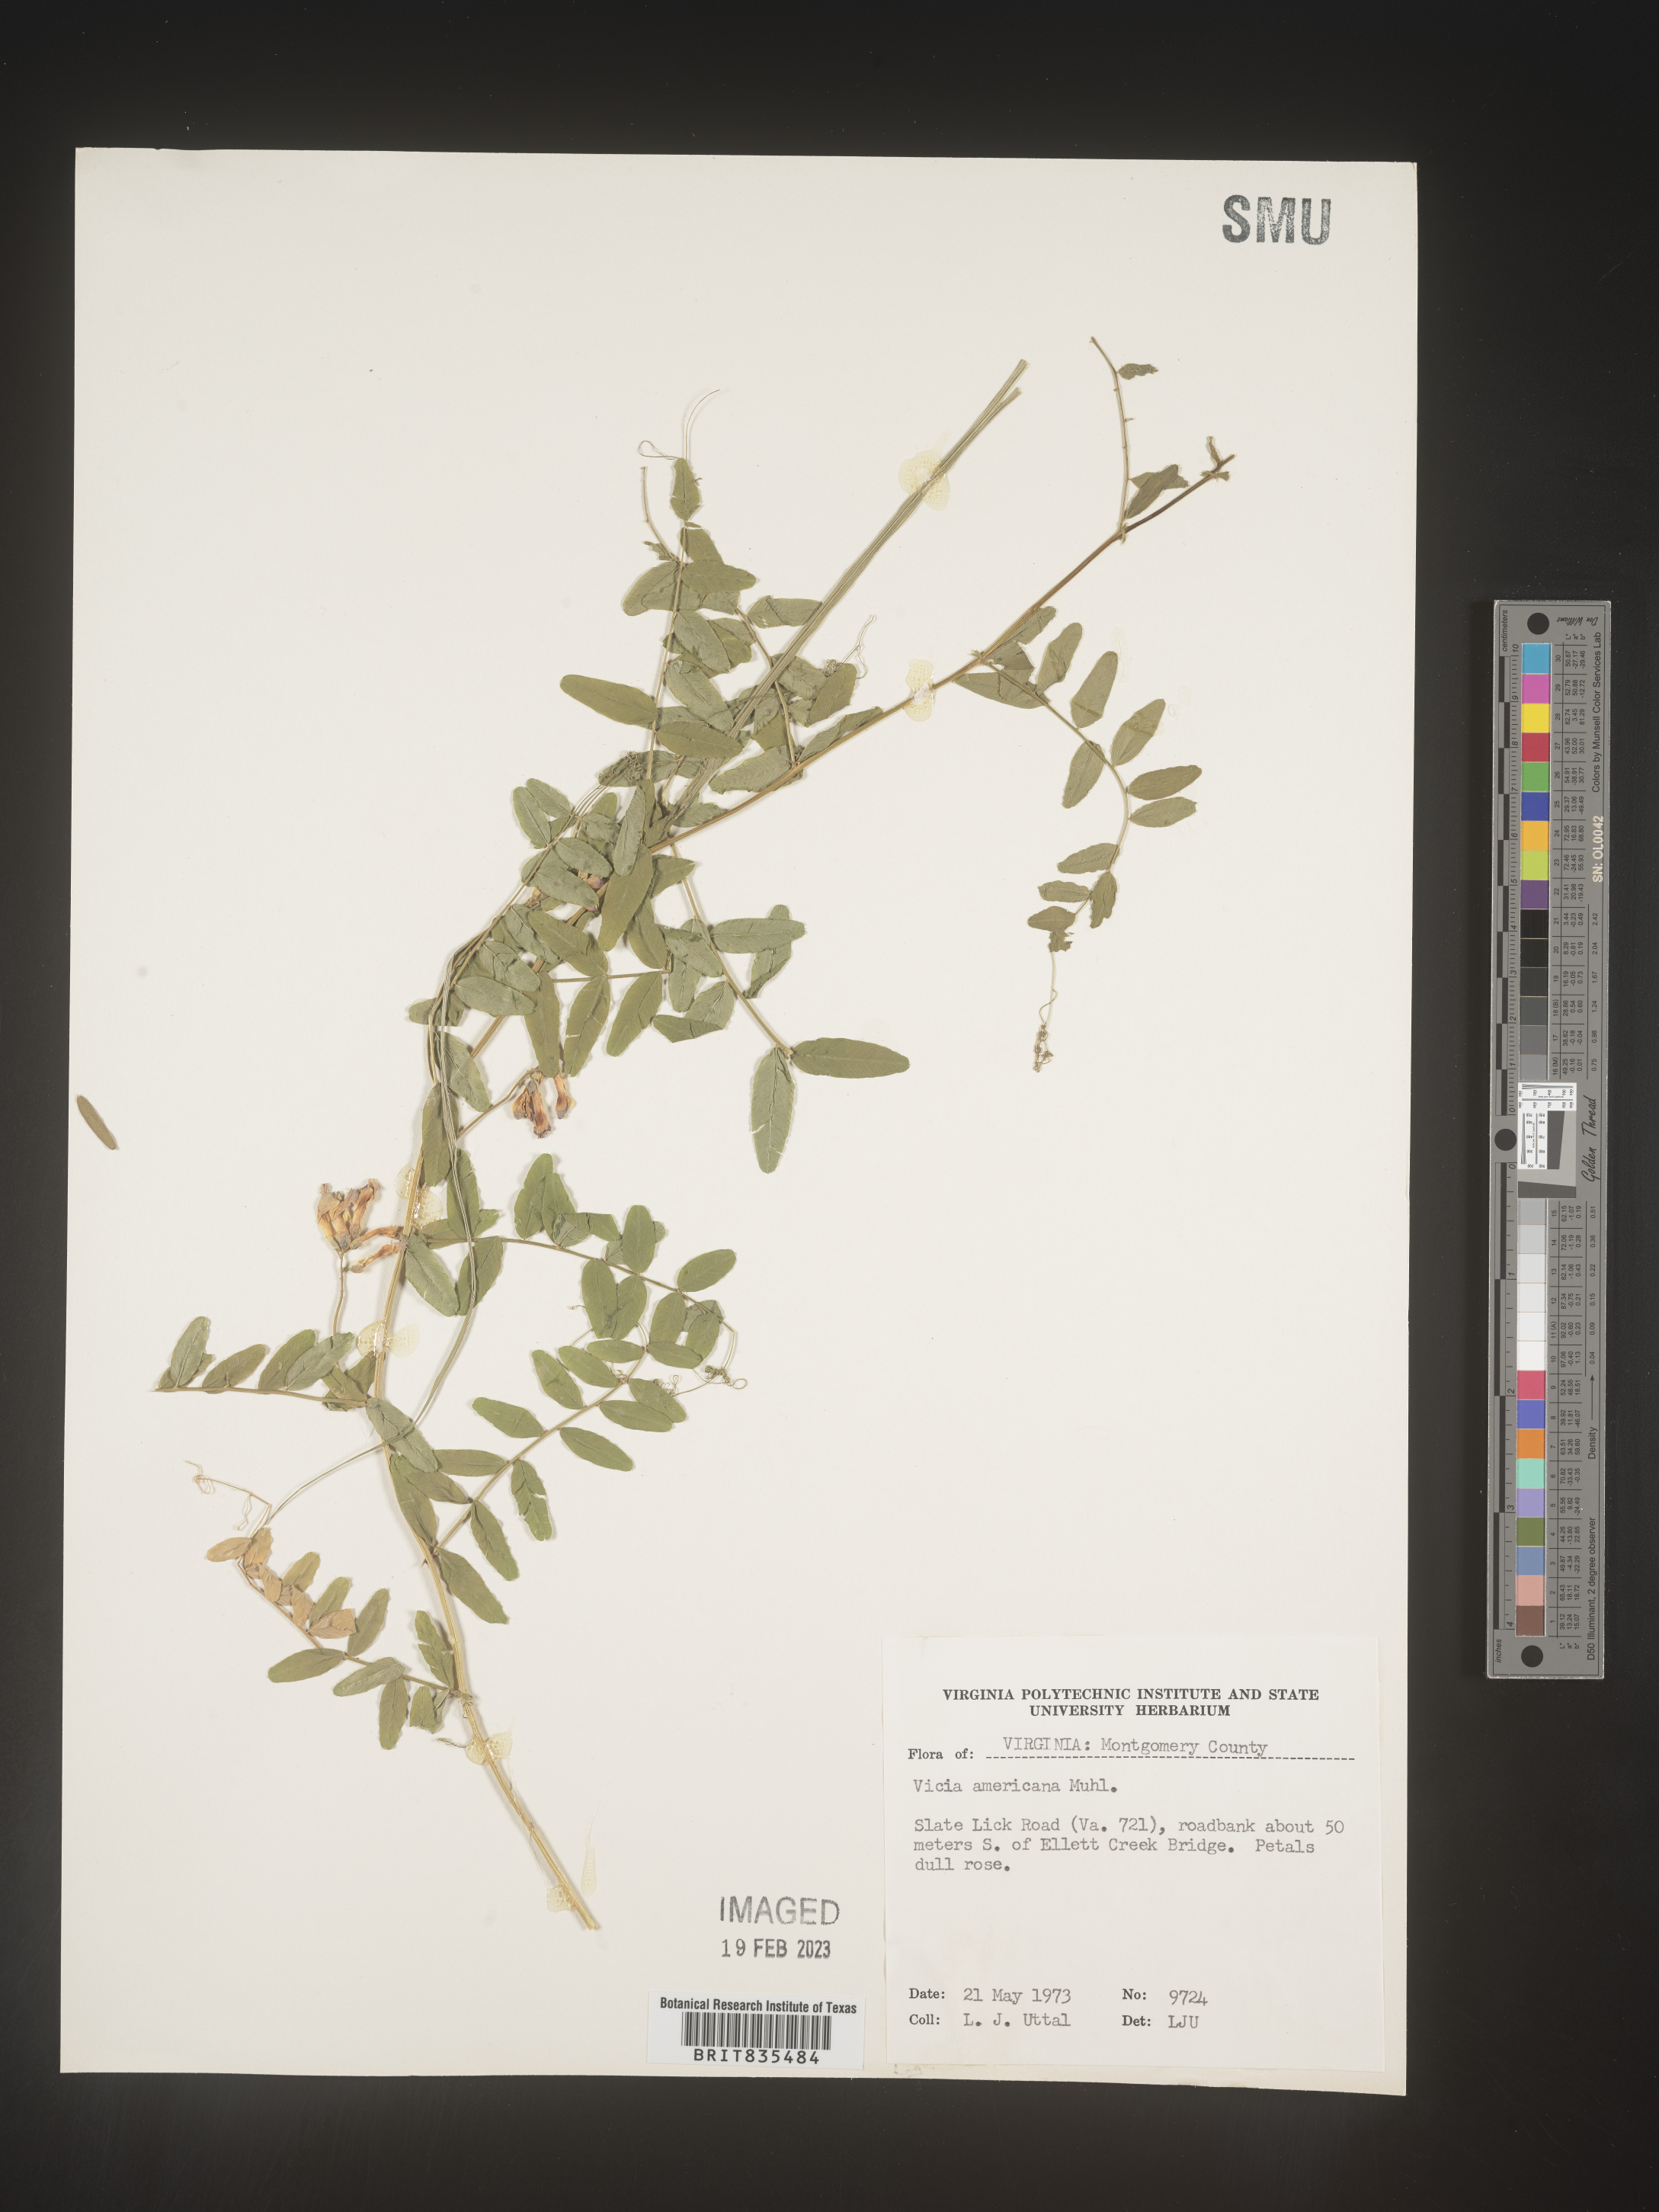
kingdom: Plantae
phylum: Tracheophyta
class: Magnoliopsida
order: Fabales
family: Fabaceae
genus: Vicia
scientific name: Vicia americana
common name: American vetch
